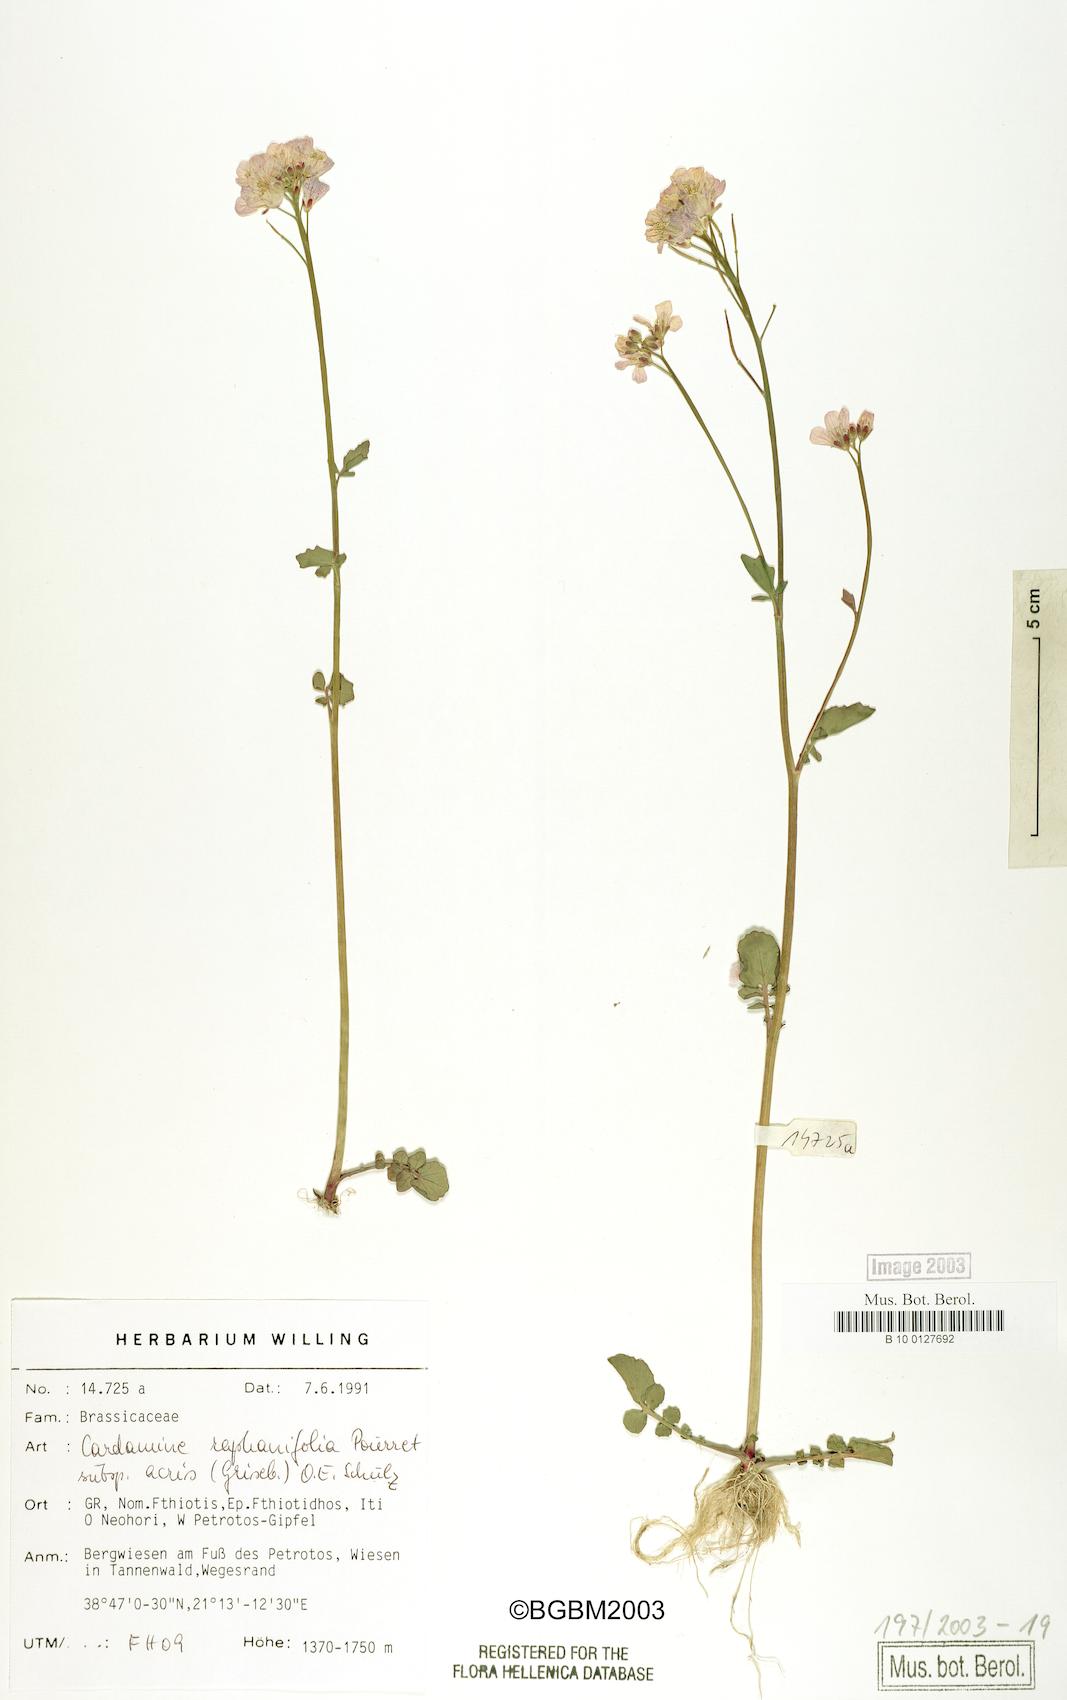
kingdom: Plantae
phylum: Tracheophyta
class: Magnoliopsida
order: Brassicales
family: Brassicaceae
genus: Cardamine
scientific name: Cardamine raphanifolia
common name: Greater cuckooflower
